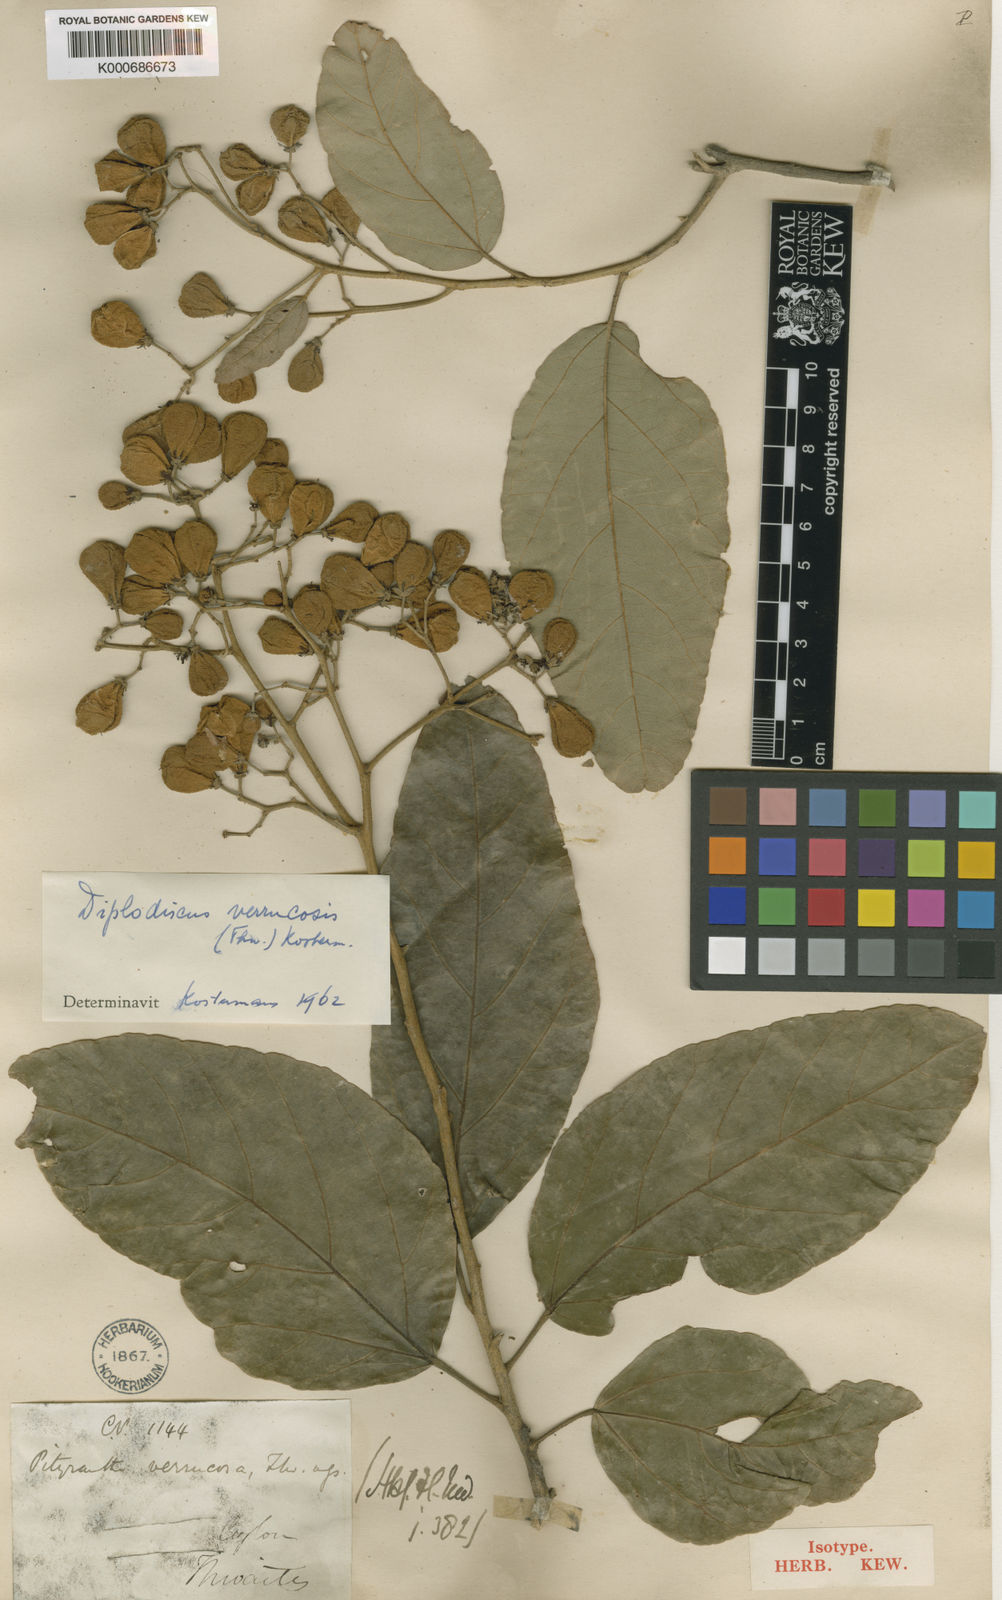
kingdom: Plantae
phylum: Tracheophyta
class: Magnoliopsida
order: Malvales
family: Malvaceae
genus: Pityranthe
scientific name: Pityranthe verrucosa
